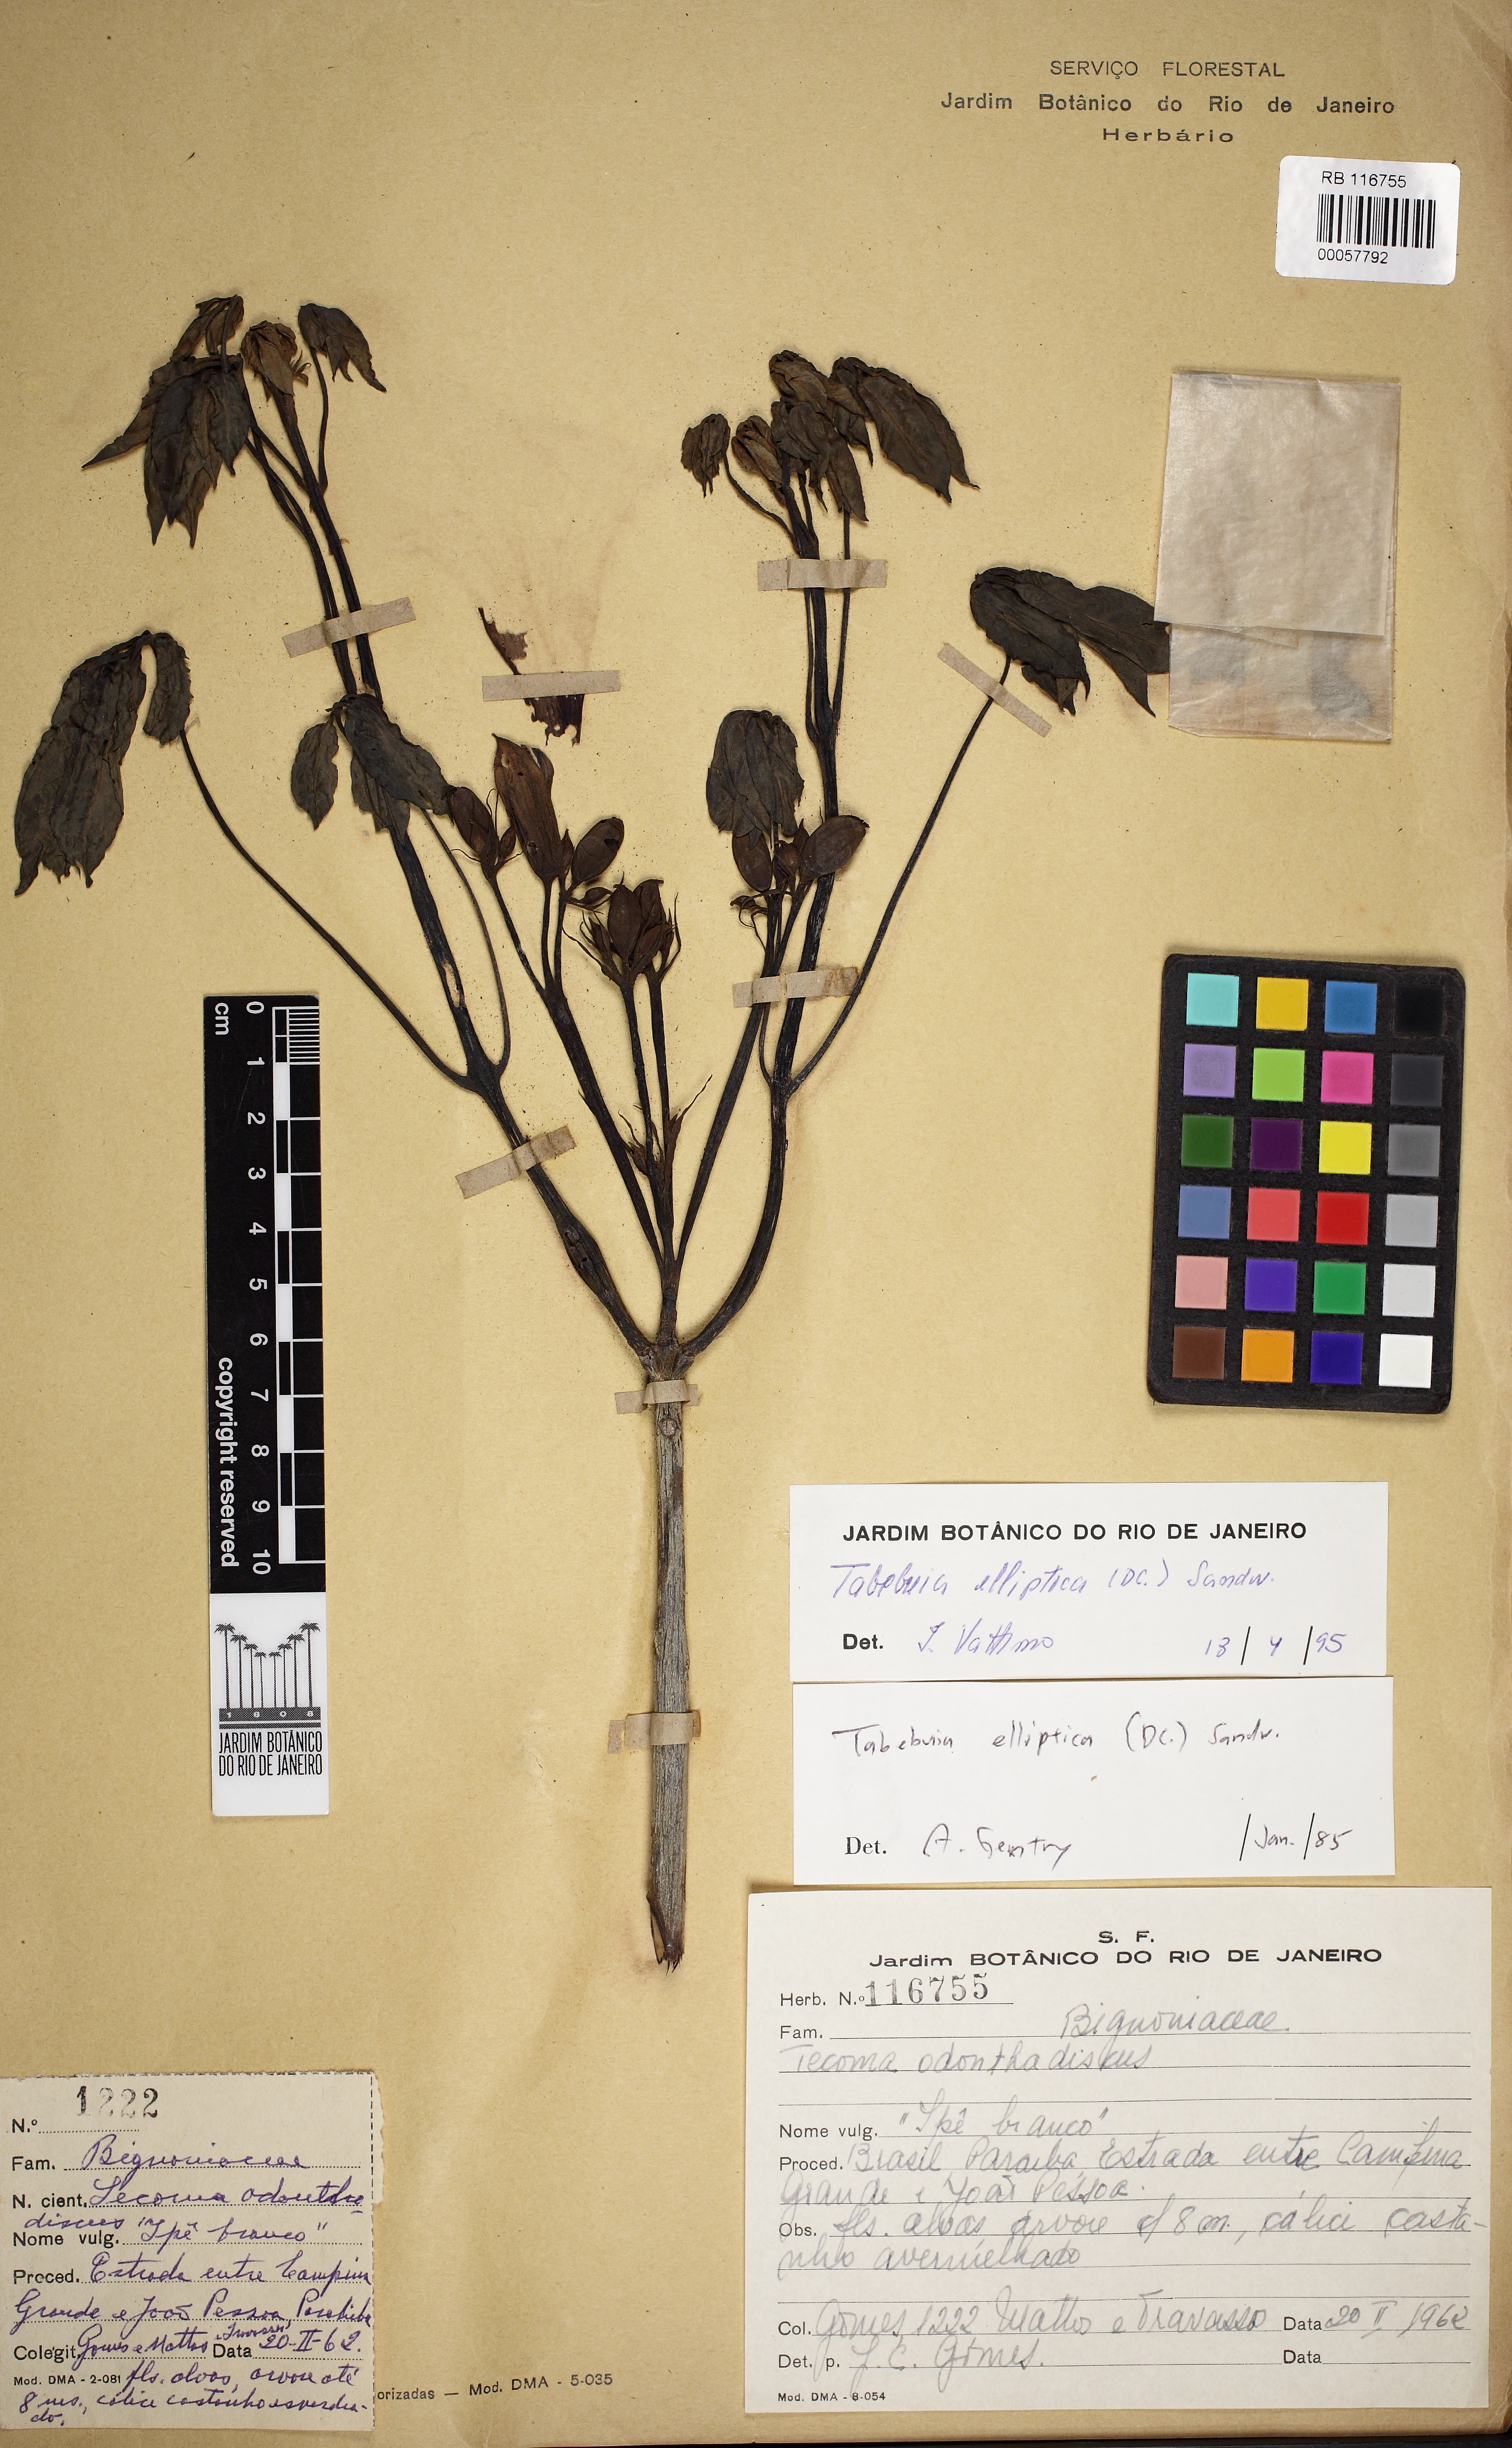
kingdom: Plantae
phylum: Tracheophyta
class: Magnoliopsida
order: Lamiales
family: Bignoniaceae
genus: Tabebuia
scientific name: Tabebuia elliptica
